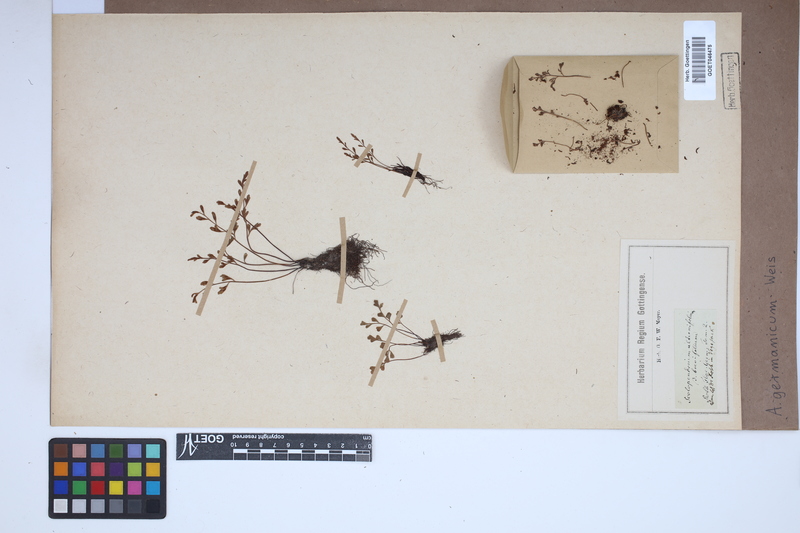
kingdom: Plantae
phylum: Tracheophyta
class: Polypodiopsida
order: Polypodiales
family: Aspleniaceae
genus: Asplenium
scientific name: Asplenium
